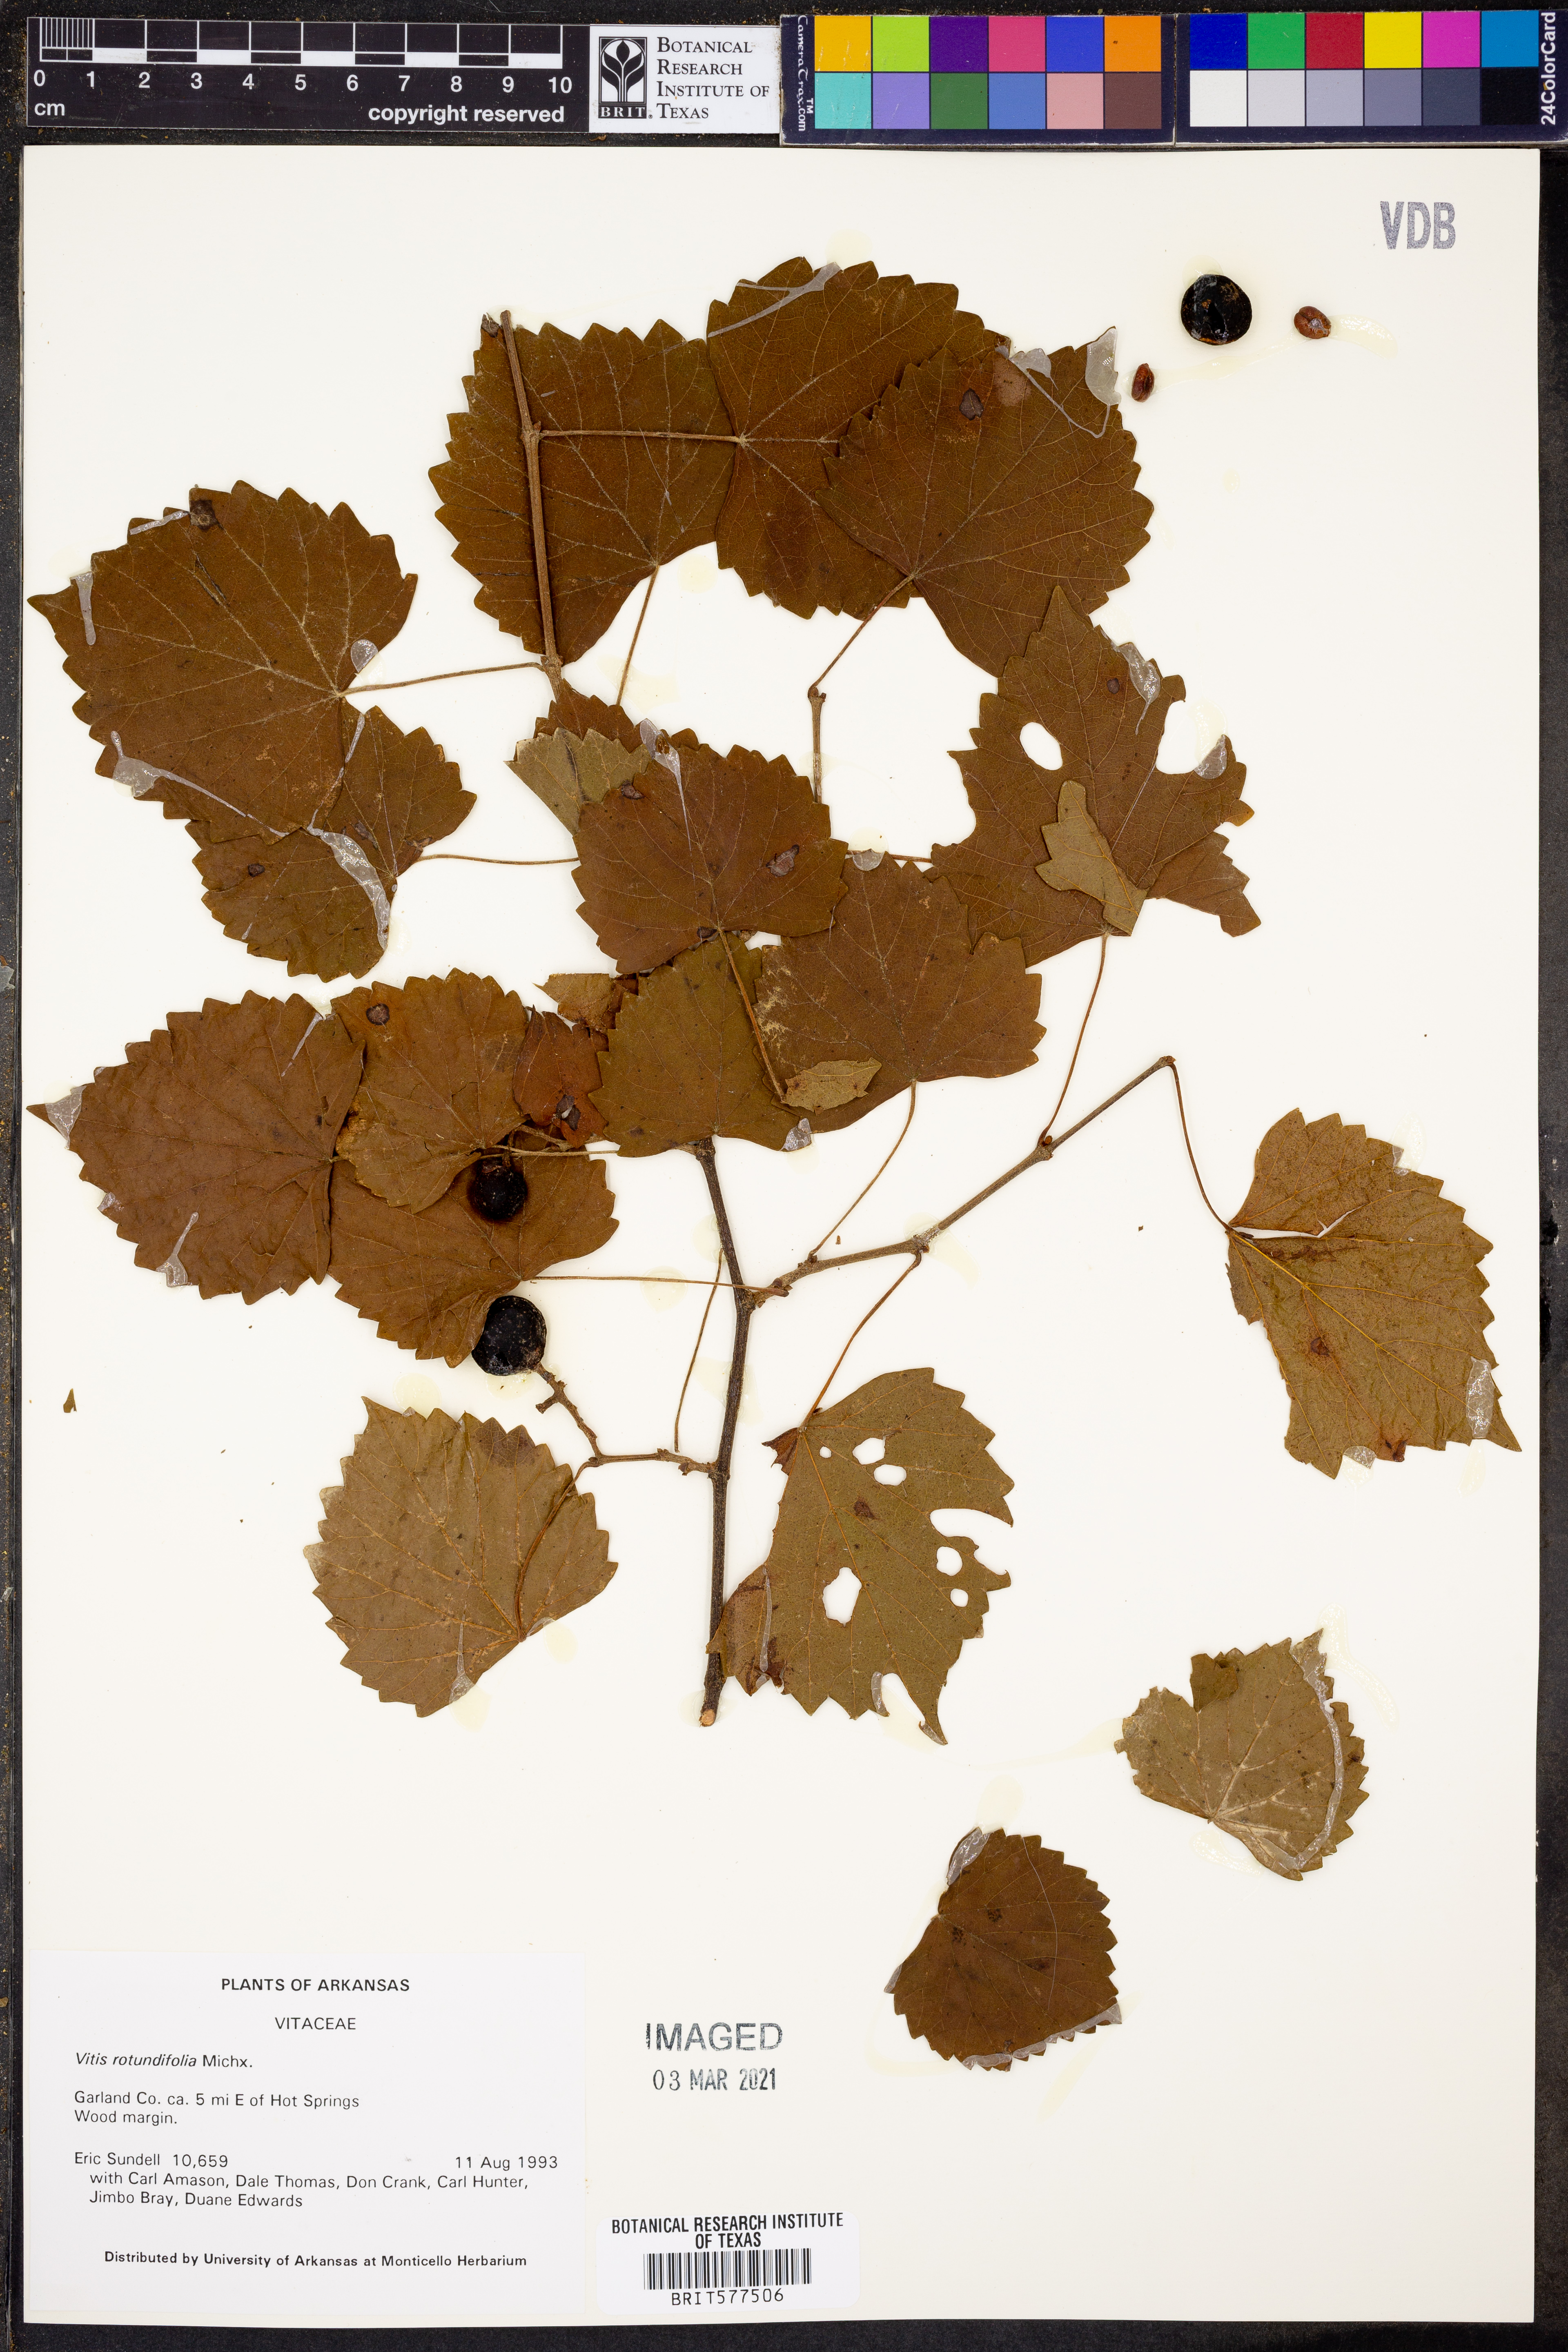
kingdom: Plantae
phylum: Tracheophyta
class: Magnoliopsida
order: Vitales
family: Vitaceae
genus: Vitis
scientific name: Vitis rotundifolia
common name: Muscadine grape
